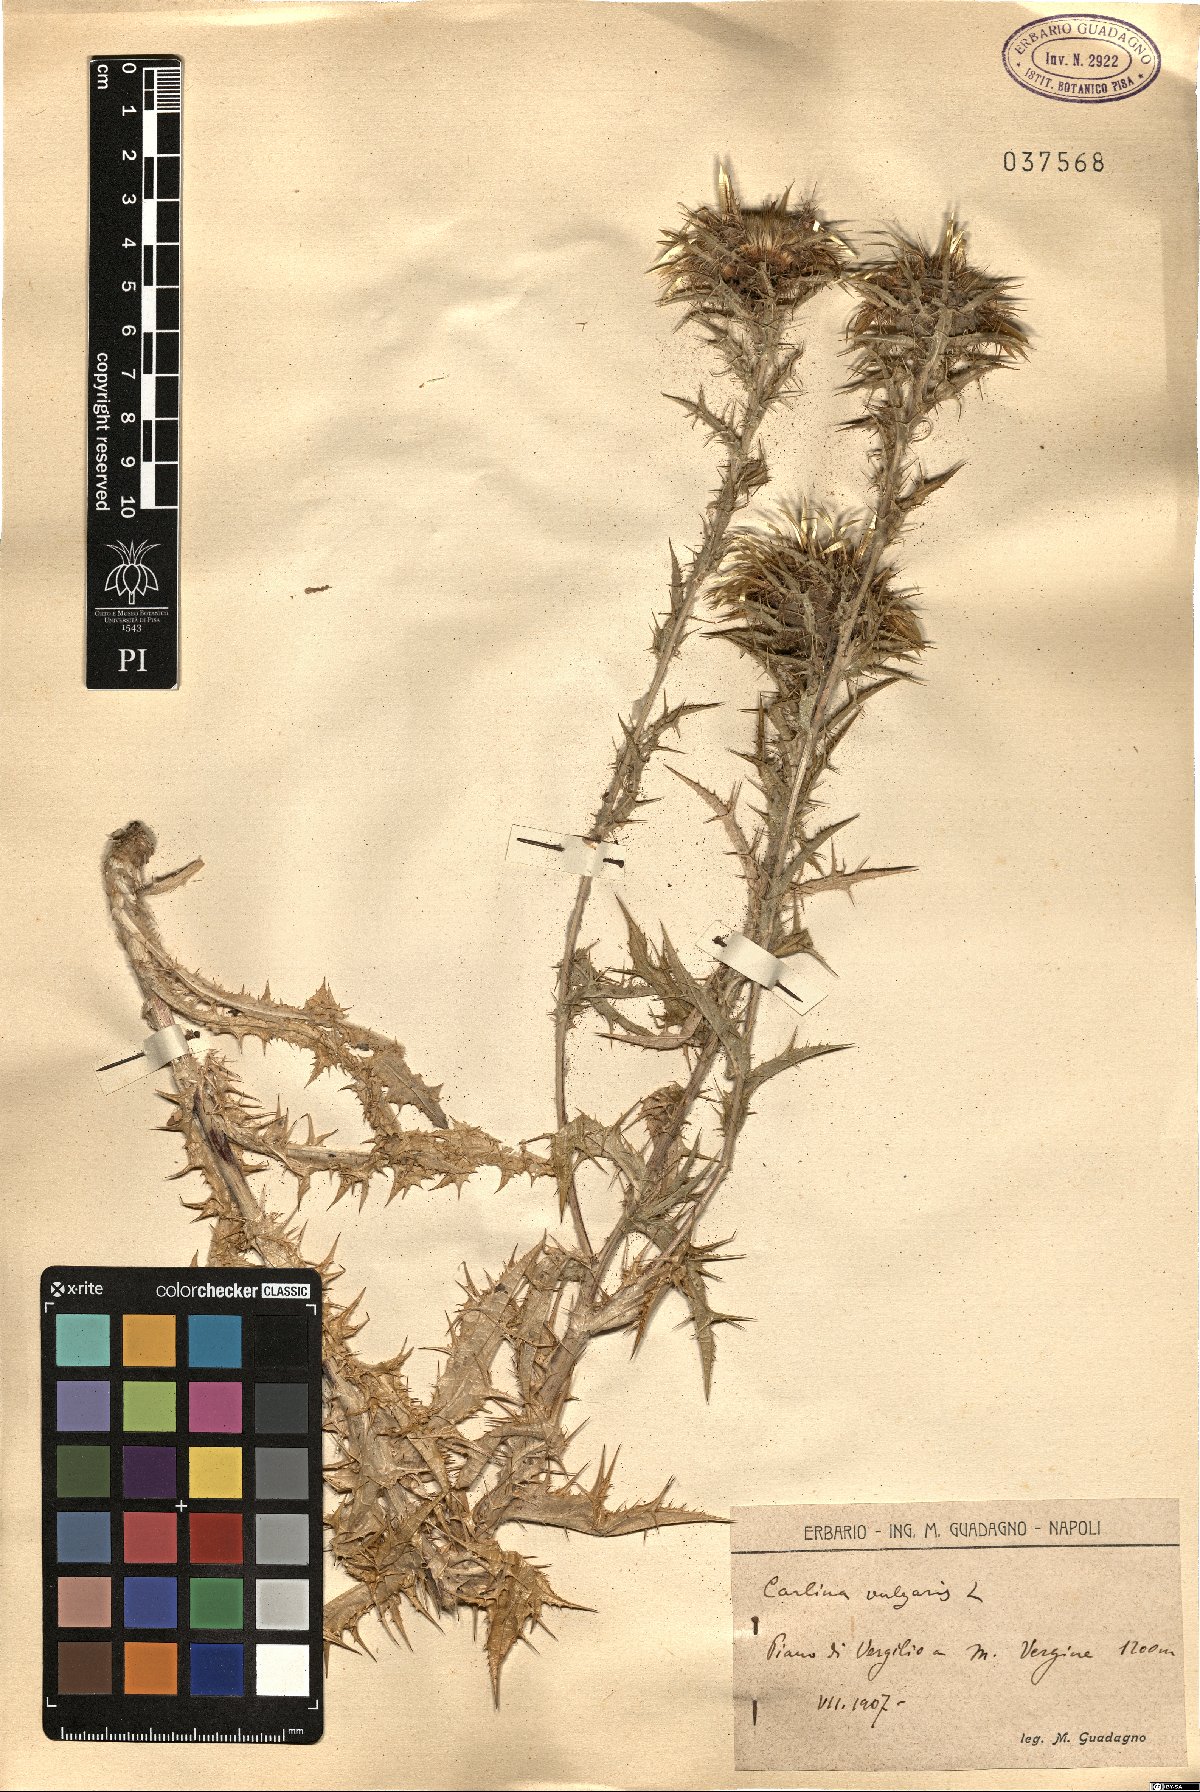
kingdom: Plantae
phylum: Tracheophyta
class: Magnoliopsida
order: Asterales
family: Asteraceae
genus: Carlina
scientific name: Carlina vulgaris
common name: Carline thistle
